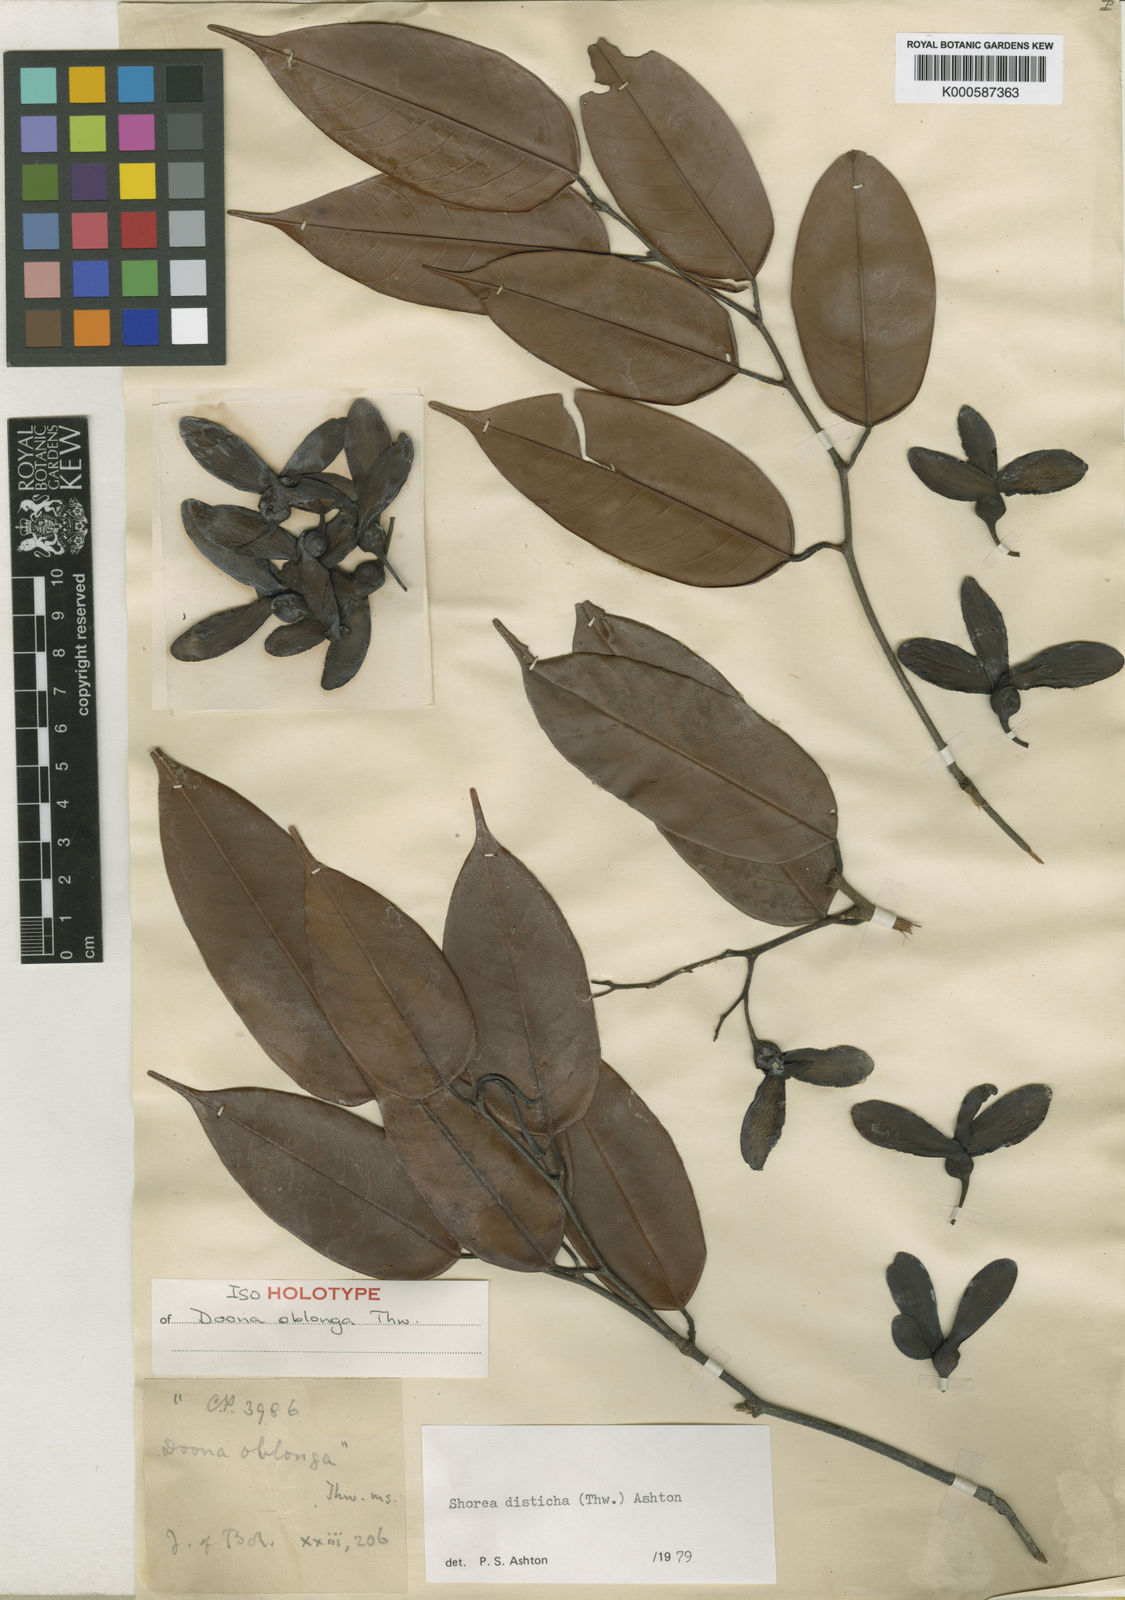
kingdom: Plantae
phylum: Tracheophyta
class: Magnoliopsida
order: Malvales
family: Dipterocarpaceae
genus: Doona
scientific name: Doona disticha
